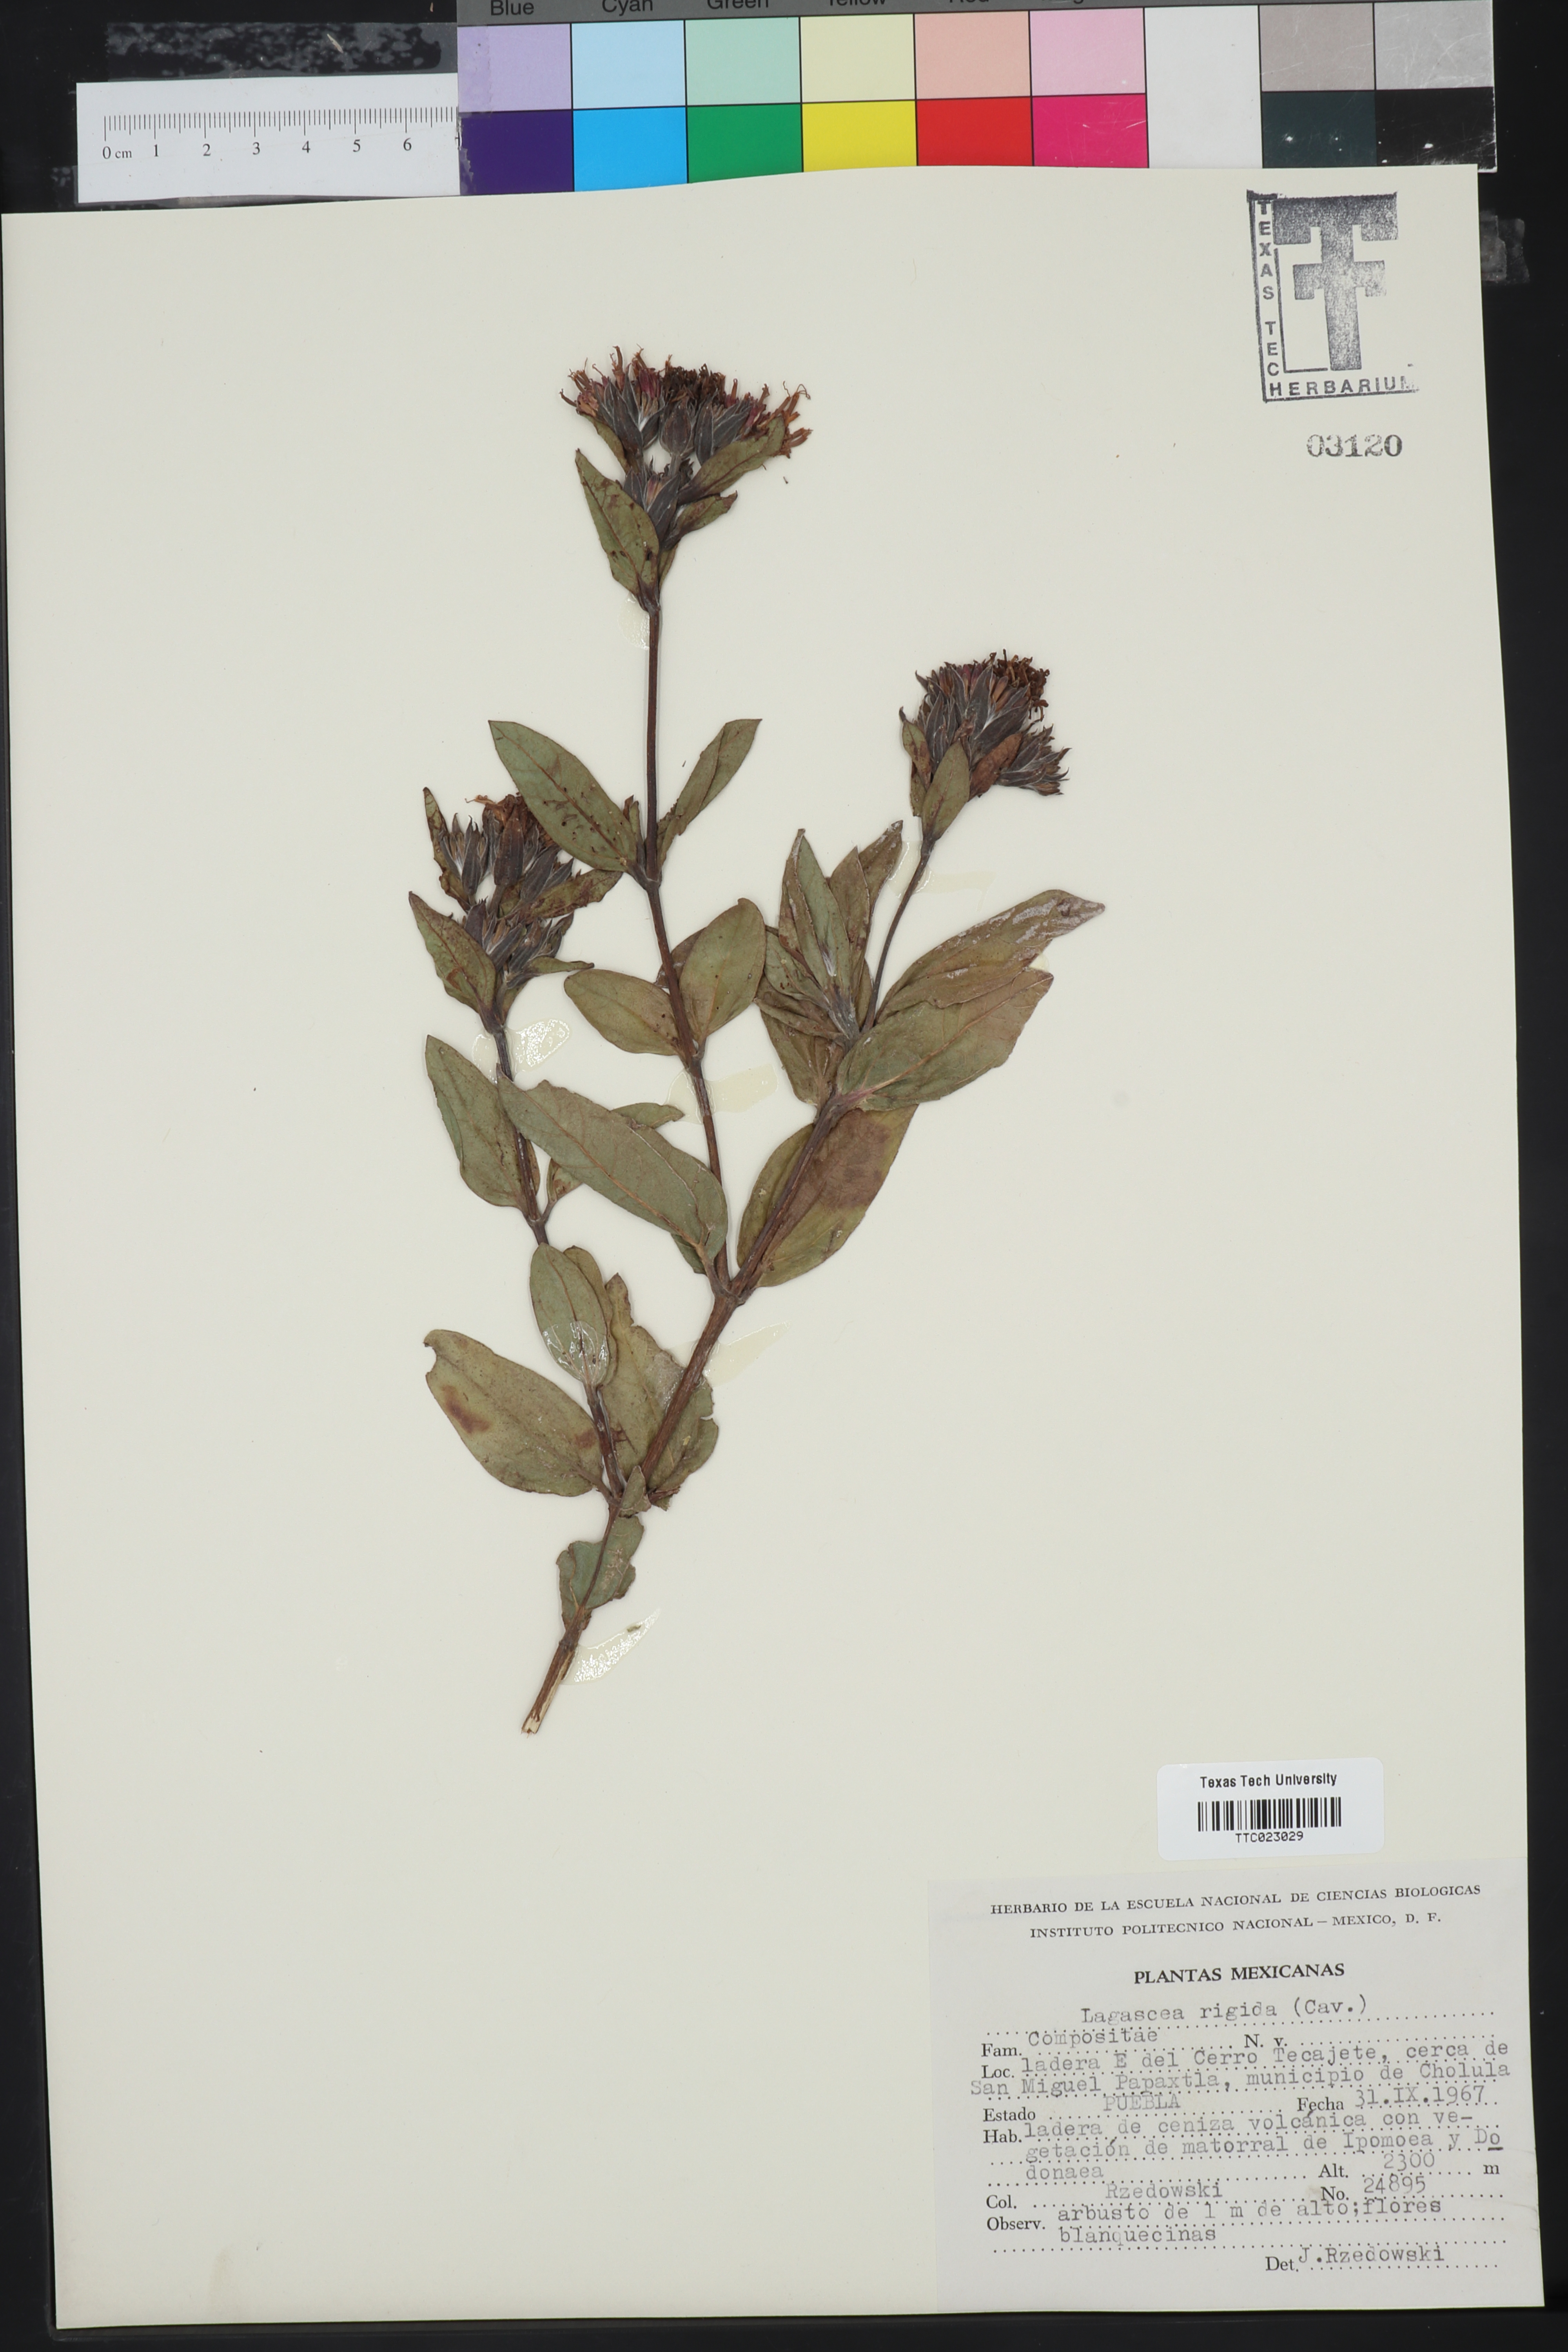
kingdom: Plantae
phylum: Tracheophyta
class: Magnoliopsida
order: Asterales
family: Asteraceae
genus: Lagascea
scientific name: Lagascea rigida
